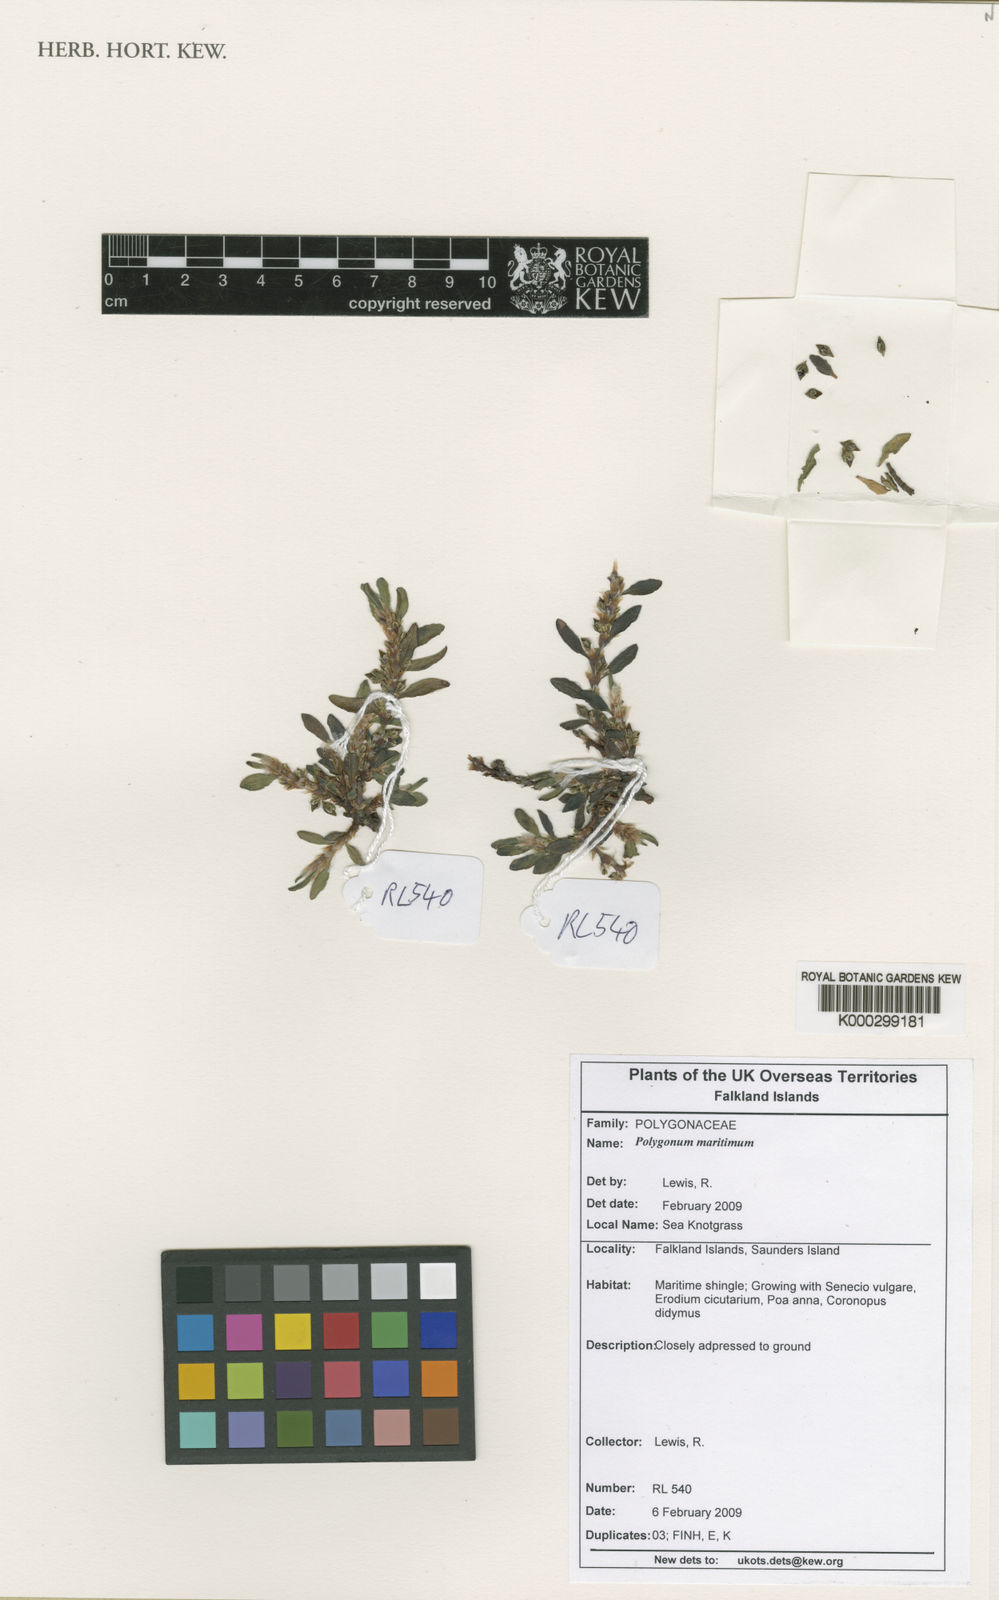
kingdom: Plantae
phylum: Tracheophyta
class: Magnoliopsida
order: Caryophyllales
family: Polygonaceae
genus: Polygonum
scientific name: Polygonum maritimum
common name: Sea knotgrass
